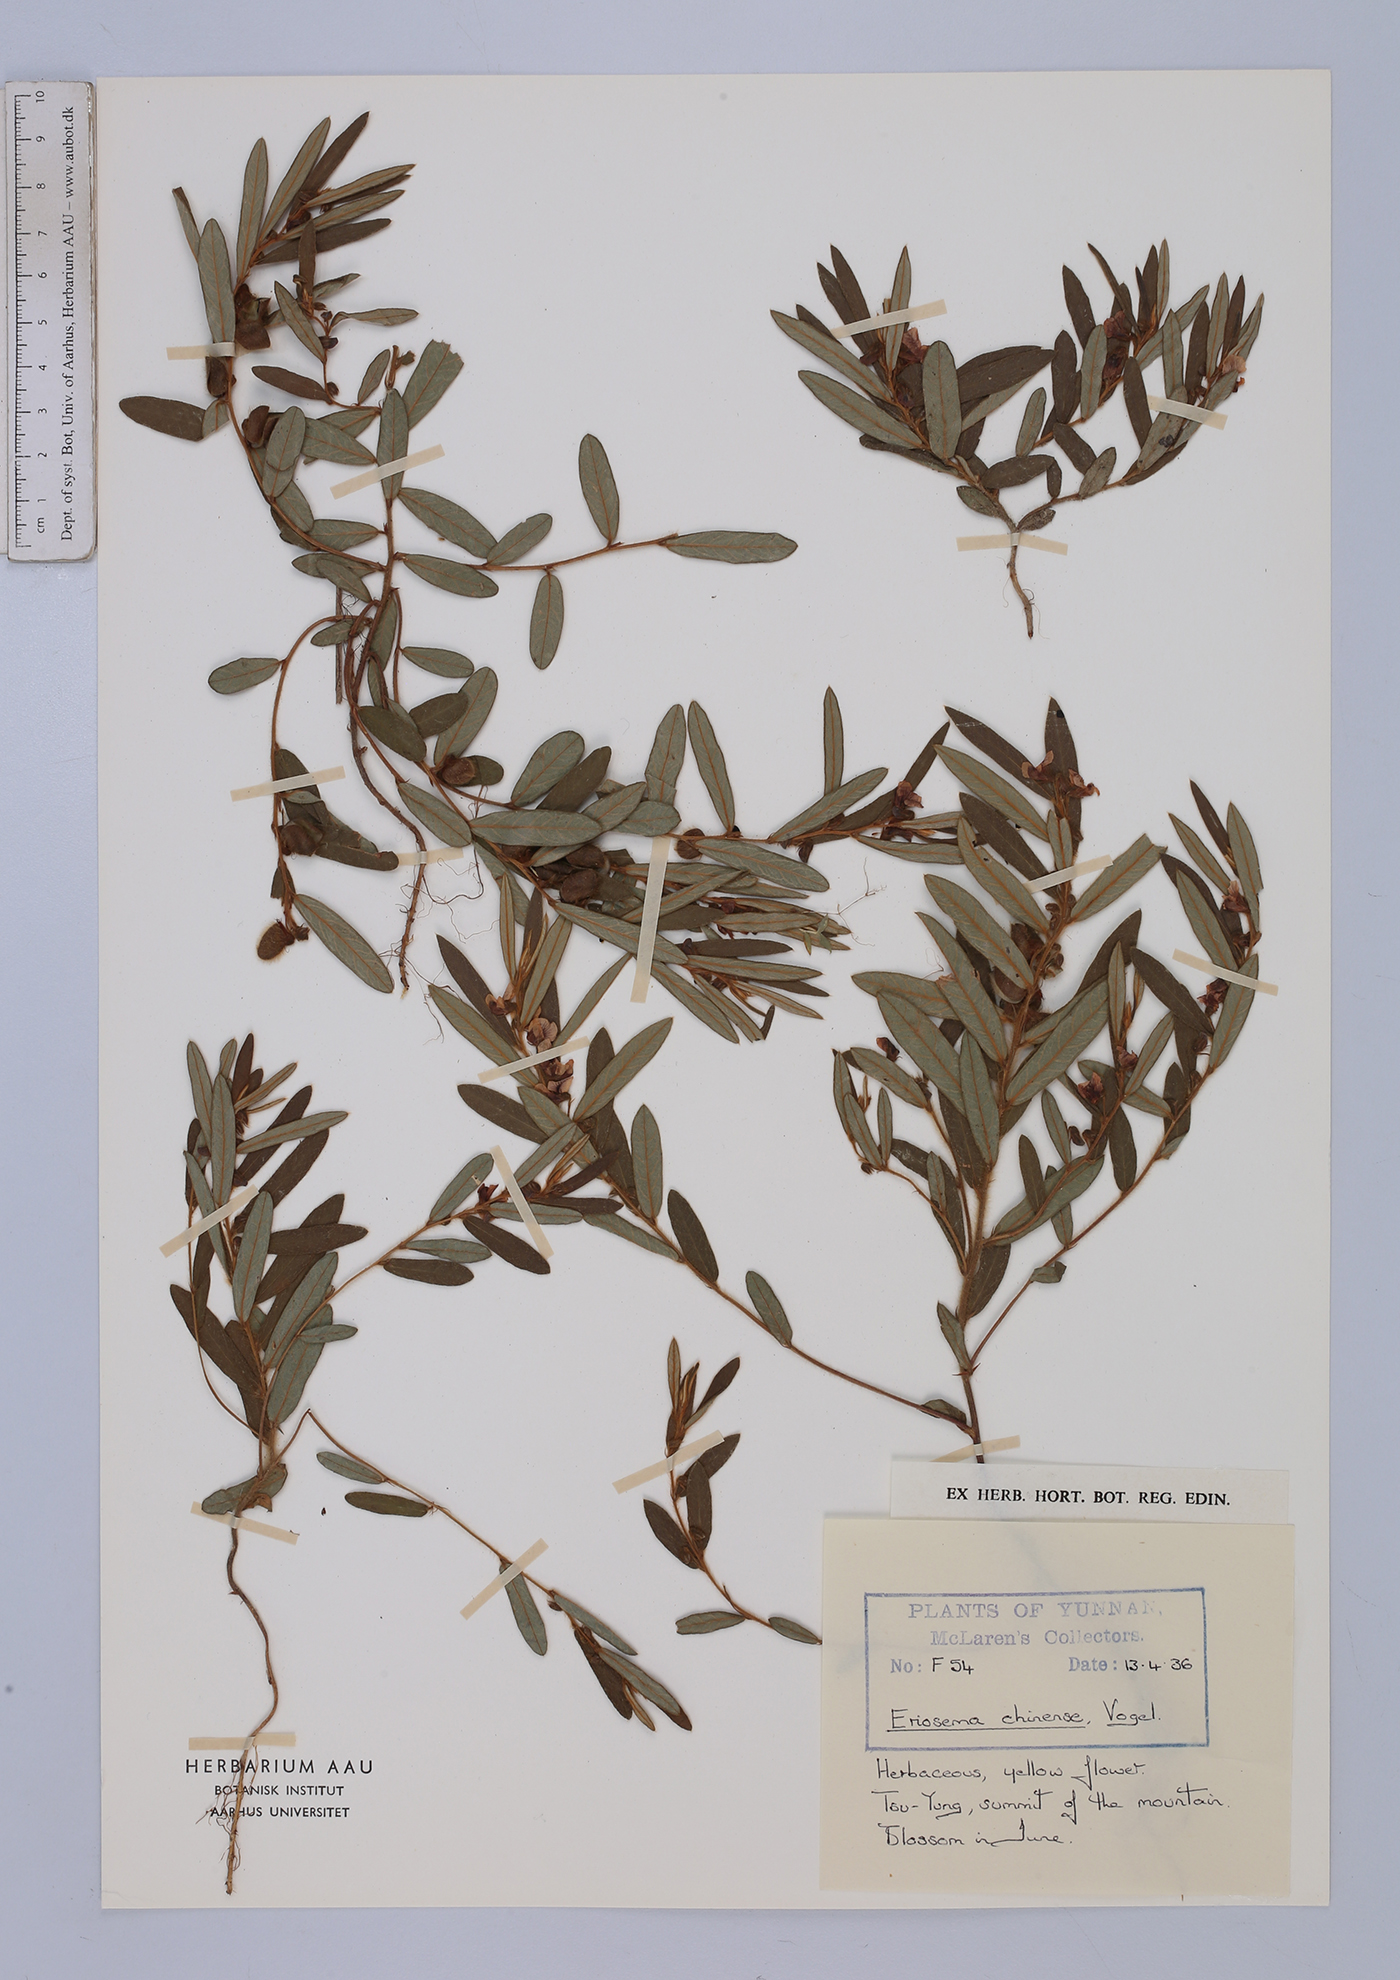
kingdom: Plantae
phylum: Tracheophyta
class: Magnoliopsida
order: Fabales
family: Fabaceae
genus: Eriosema
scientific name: Eriosema chinense
